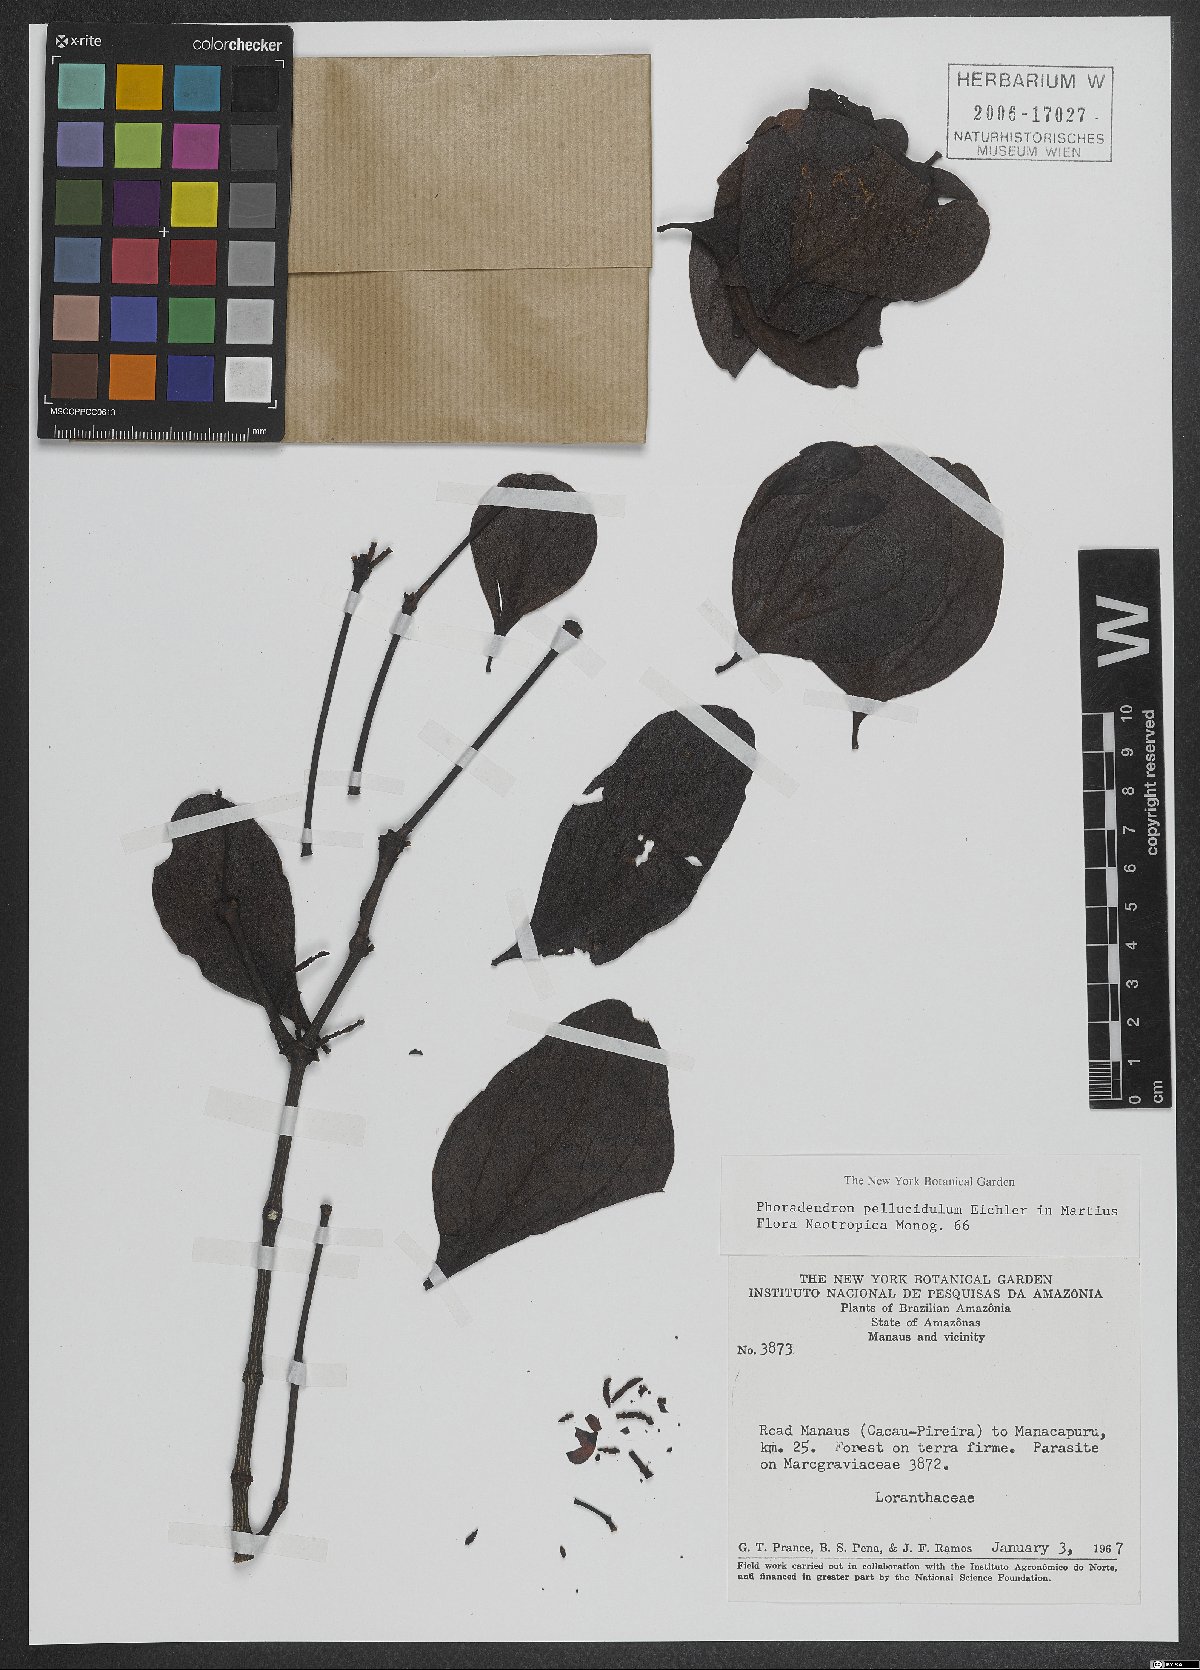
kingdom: Plantae
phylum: Tracheophyta
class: Magnoliopsida
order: Santalales
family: Viscaceae
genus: Phoradendron
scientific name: Phoradendron pellucidulum
